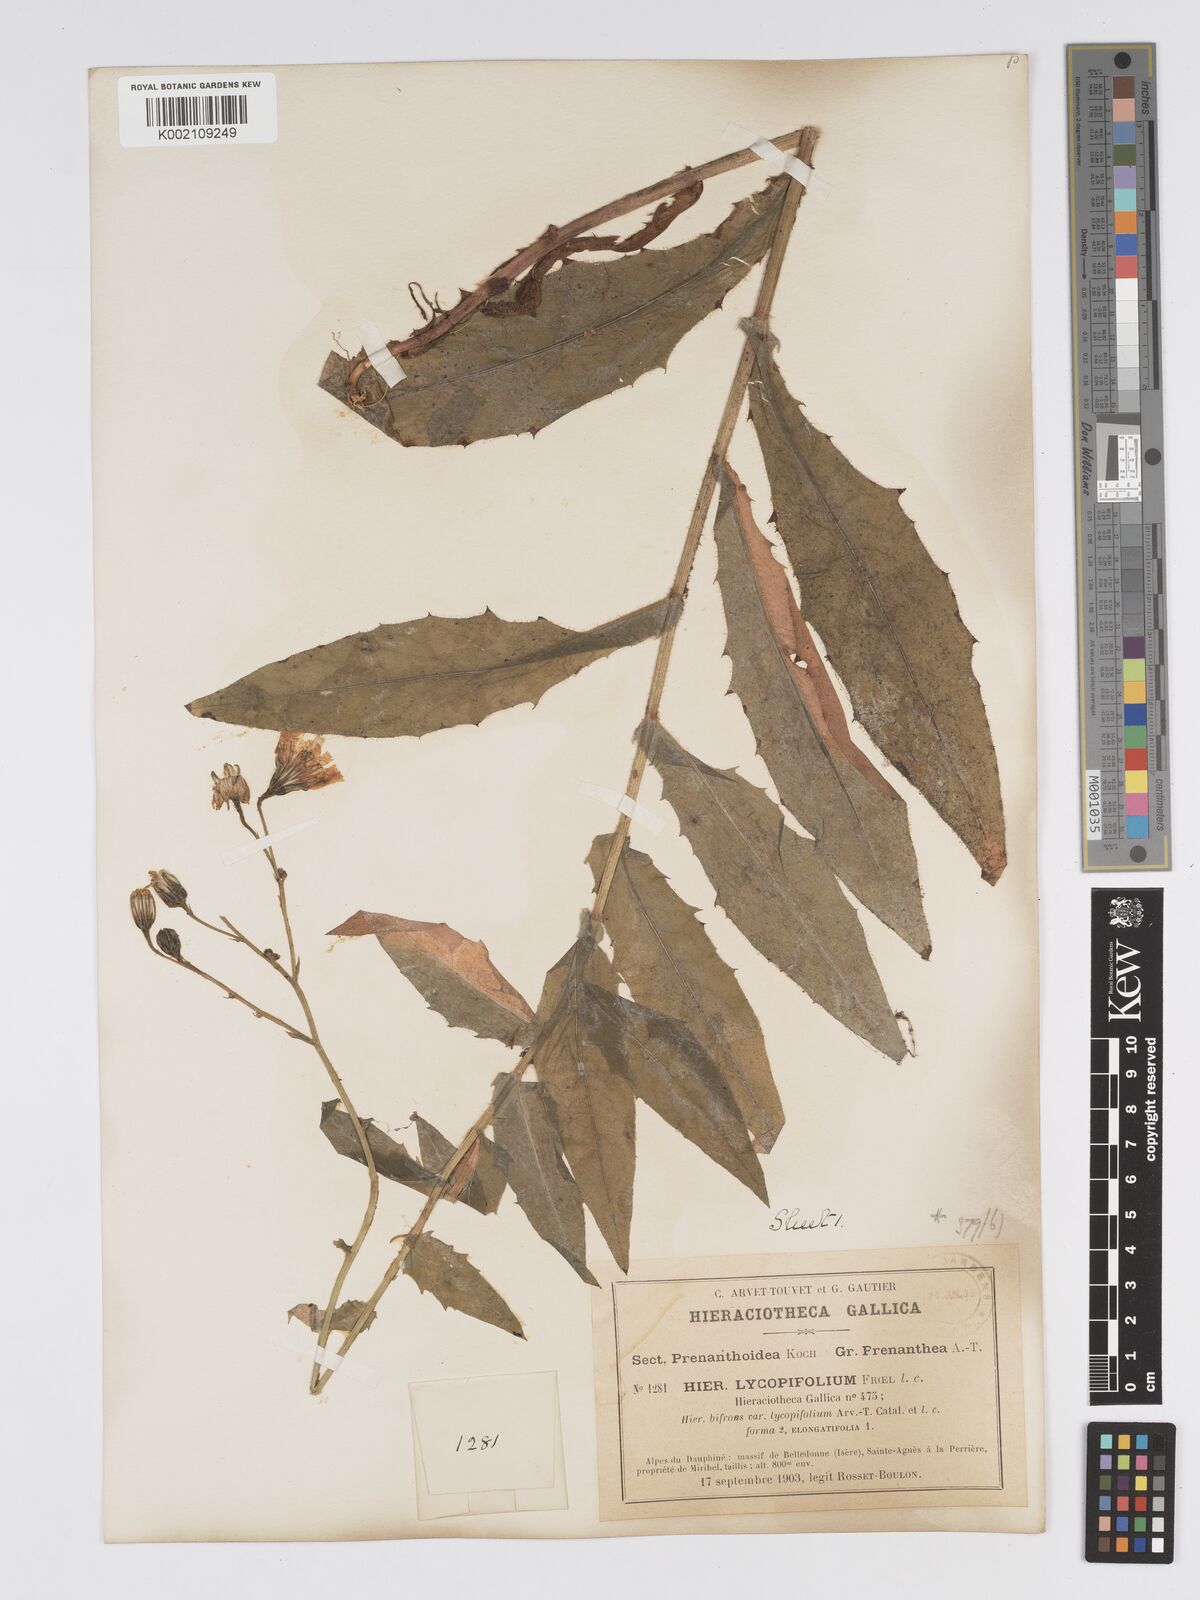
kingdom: Plantae
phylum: Tracheophyta
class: Magnoliopsida
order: Asterales
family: Asteraceae
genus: Hieracium
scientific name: Hieracium lycopifolium
